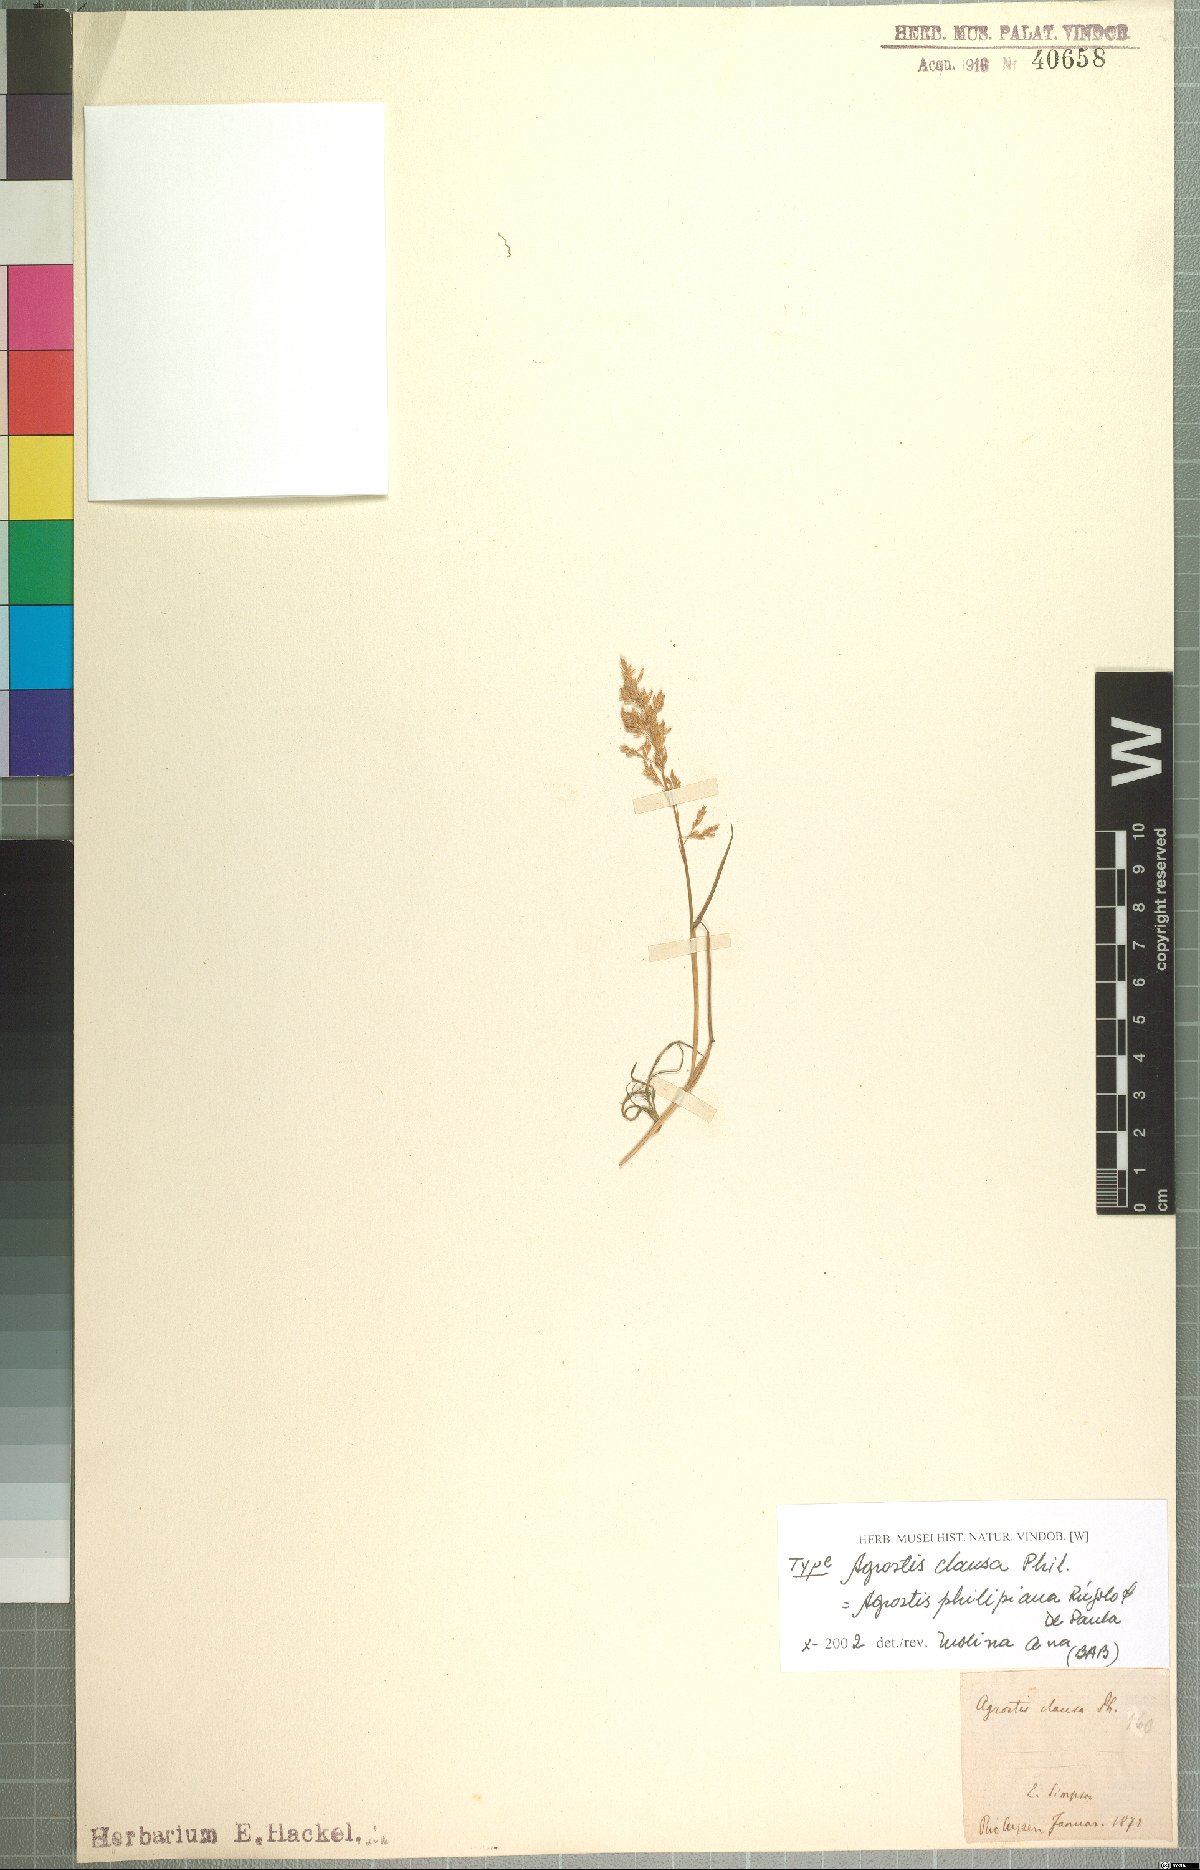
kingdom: Plantae
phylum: Tracheophyta
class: Liliopsida
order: Poales
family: Poaceae
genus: Agrostis
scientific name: Agrostis philippiana
